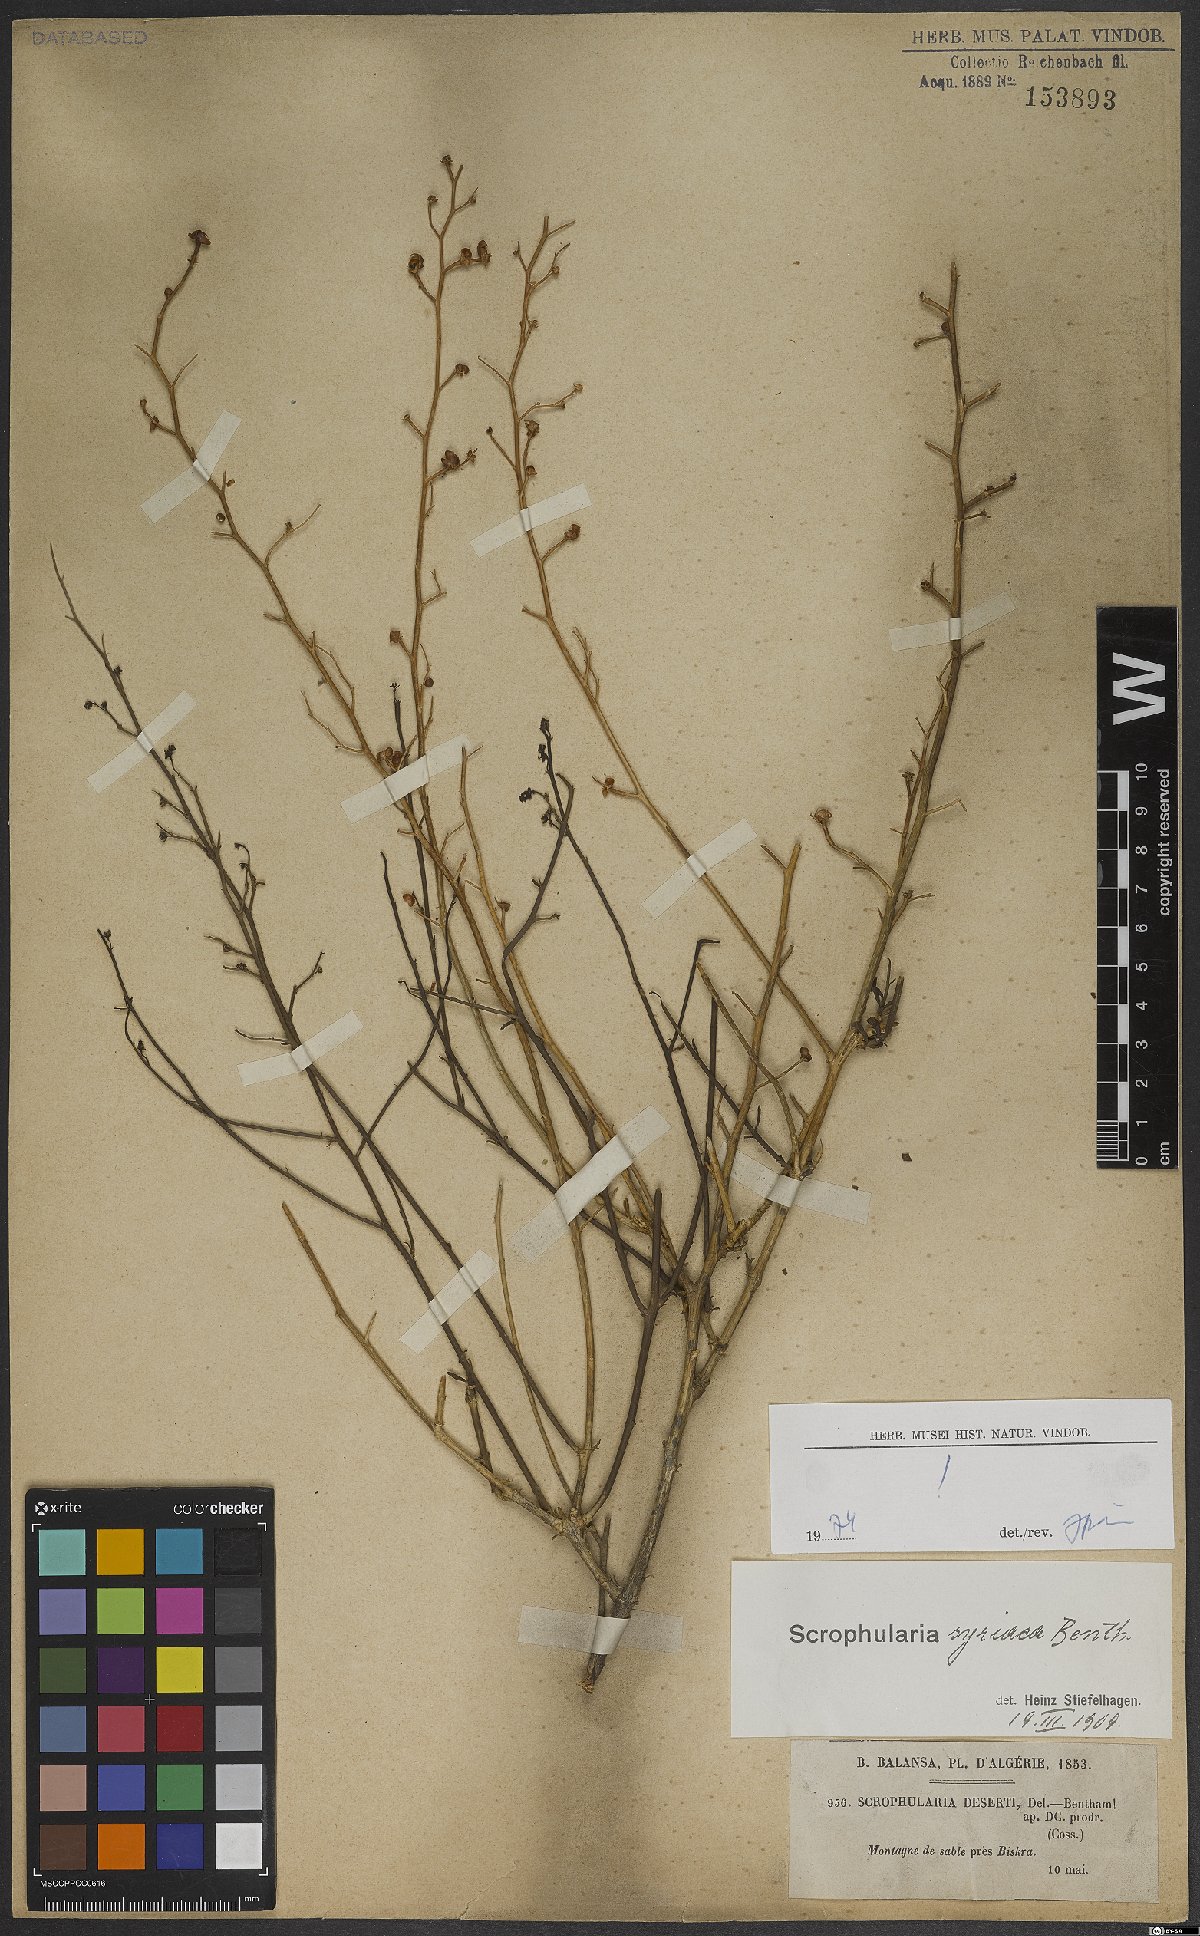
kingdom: Plantae
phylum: Tracheophyta
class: Magnoliopsida
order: Lamiales
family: Scrophulariaceae
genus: Scrophularia
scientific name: Scrophularia hypericifolia
